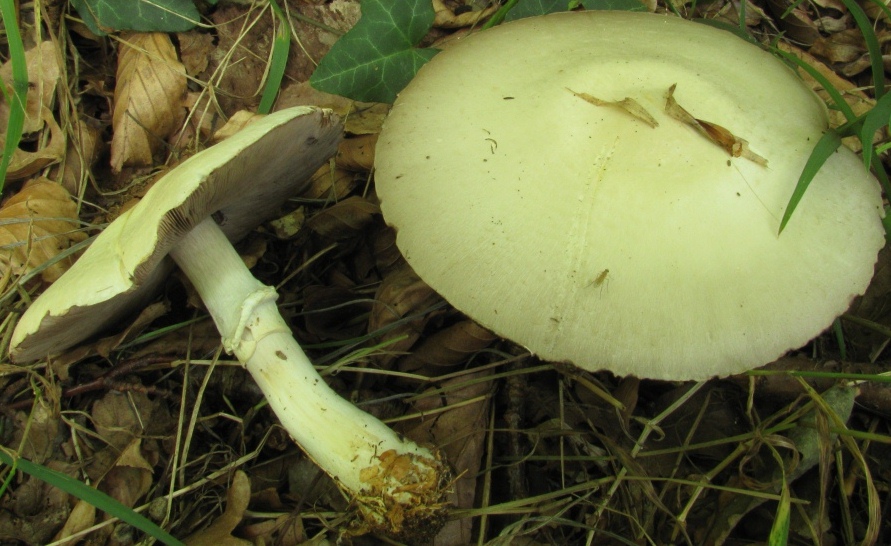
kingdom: Fungi
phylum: Basidiomycota
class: Agaricomycetes
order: Agaricales
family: Agaricaceae
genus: Agaricus
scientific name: Agaricus sylvicola
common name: gulhvid champignon
